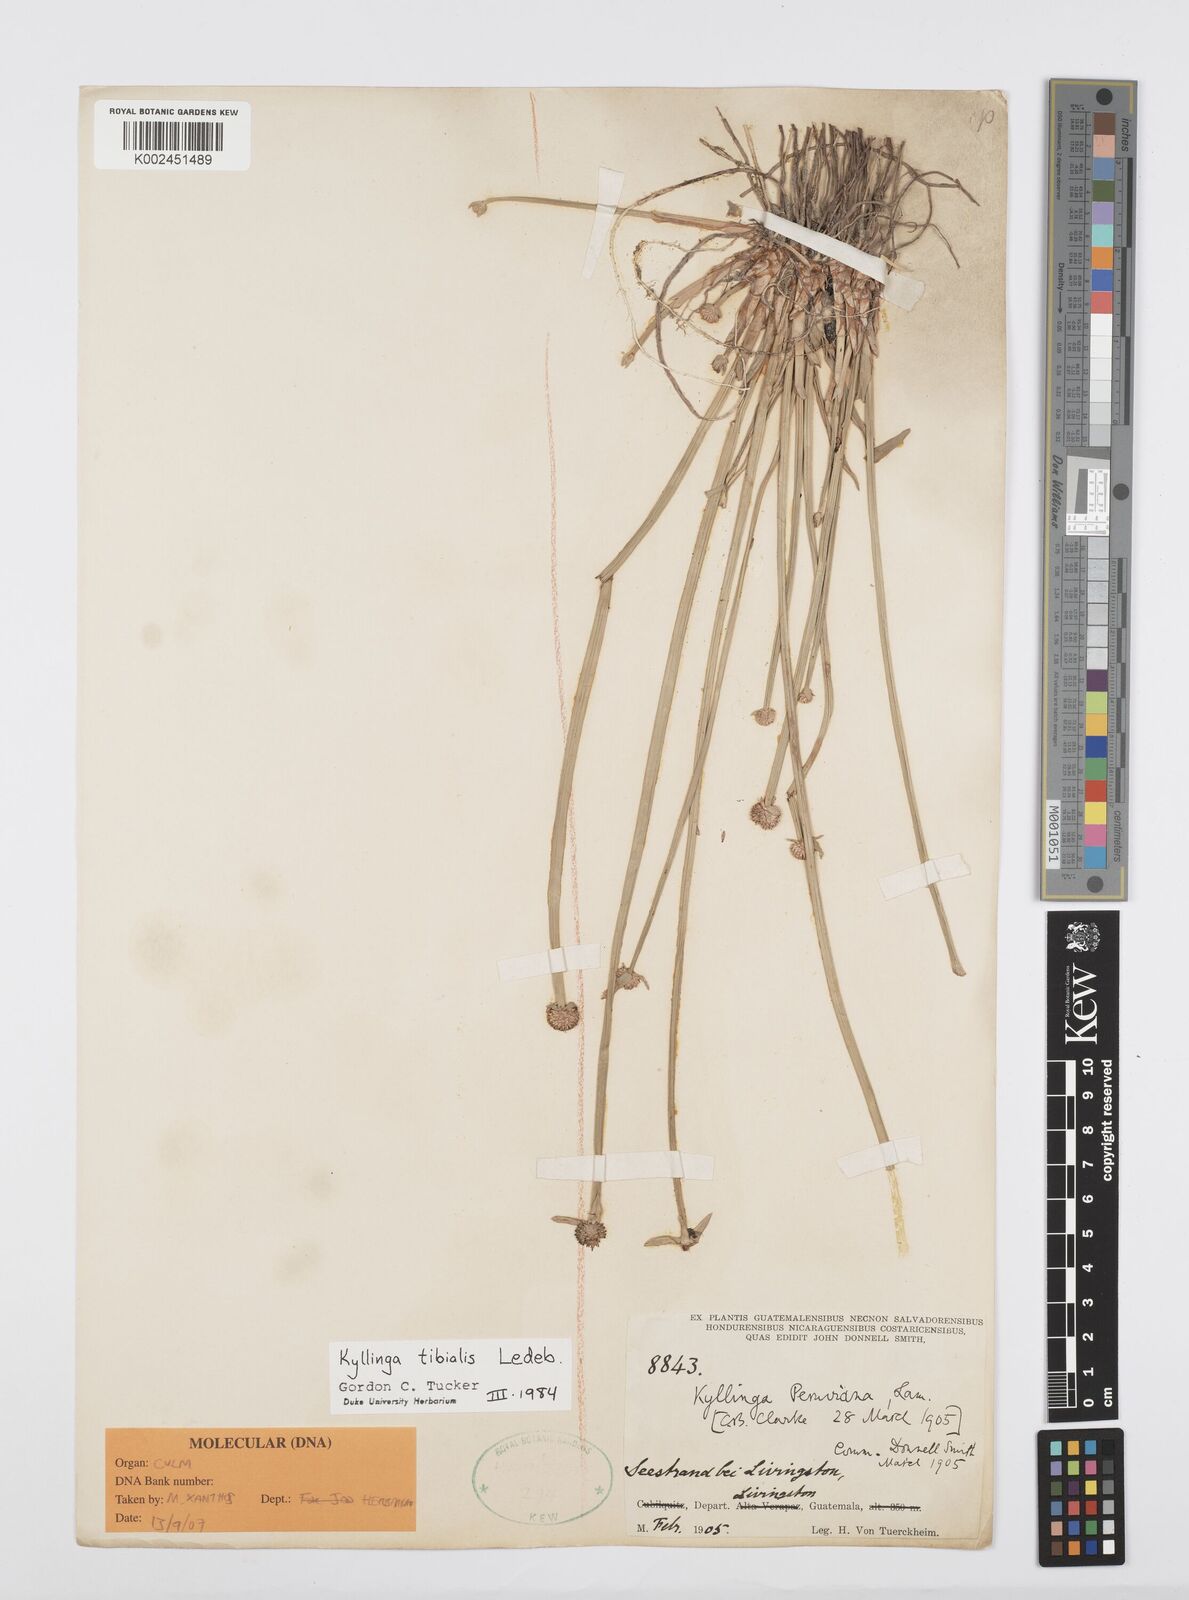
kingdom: Plantae
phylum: Tracheophyta
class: Liliopsida
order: Poales
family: Cyperaceae
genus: Cyperus
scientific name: Cyperus obtusatus
